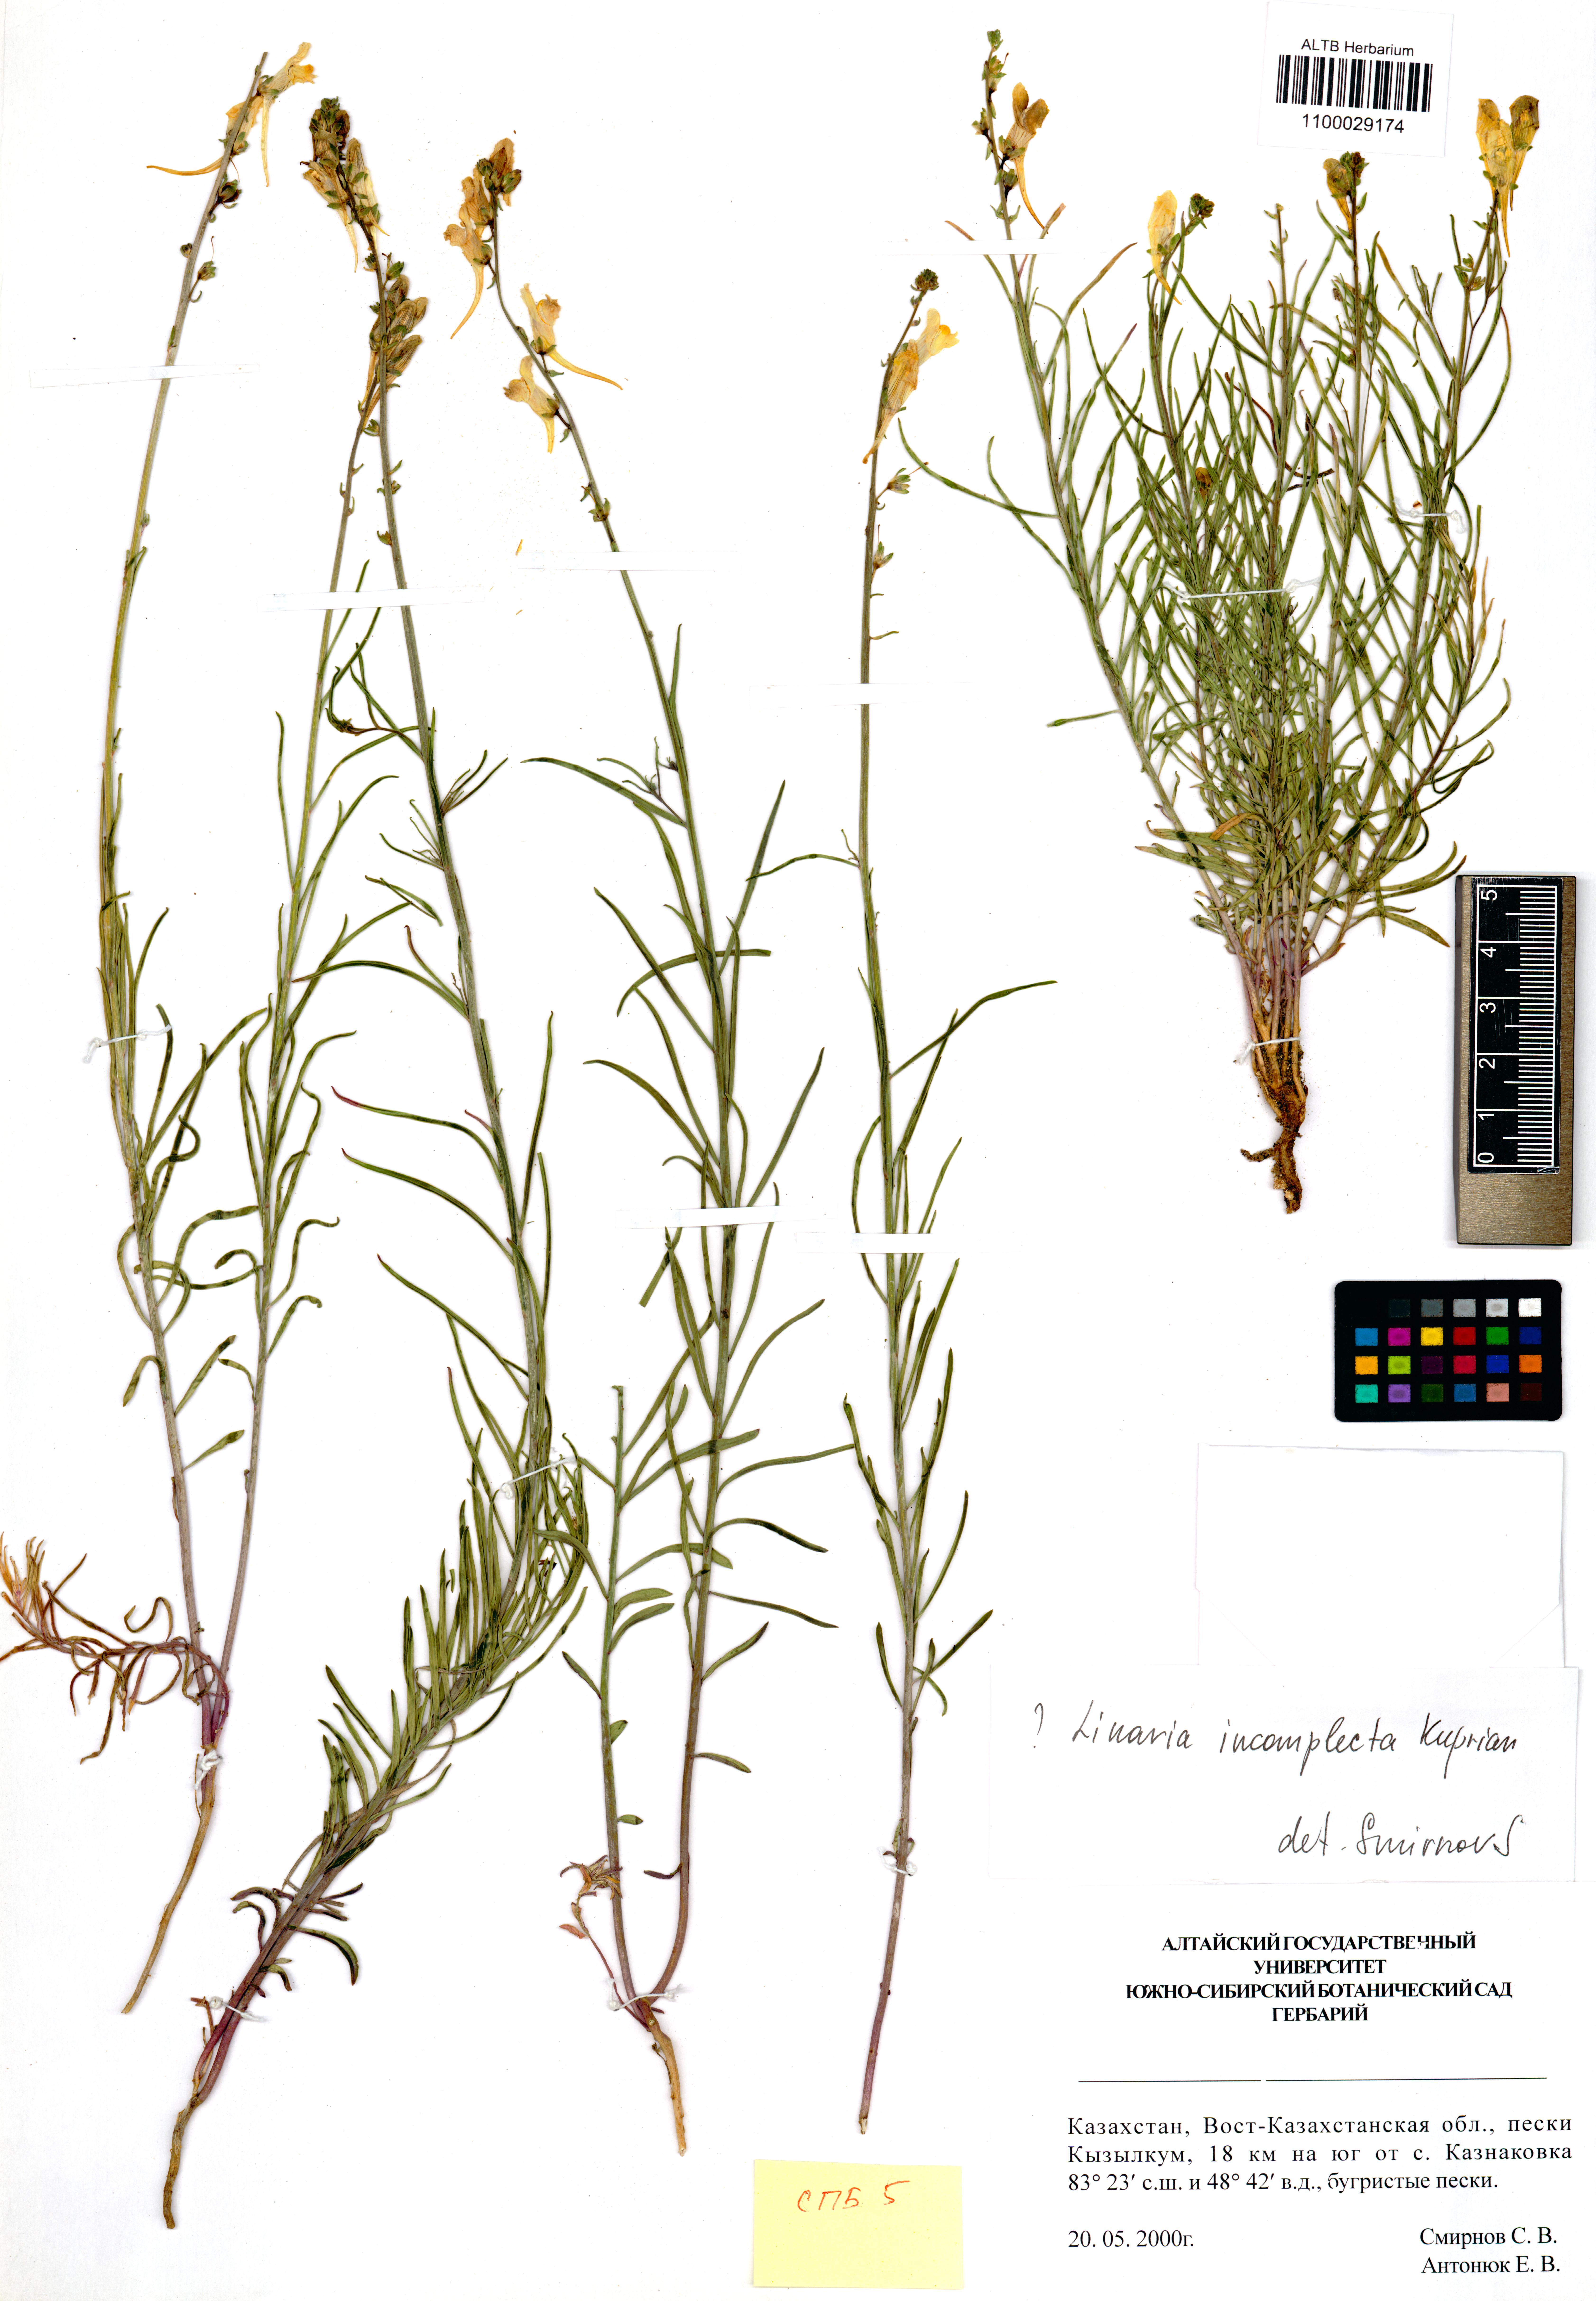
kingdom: Plantae
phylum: Tracheophyta
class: Magnoliopsida
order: Lamiales
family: Plantaginaceae
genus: Linaria
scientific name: Linaria incompleta
